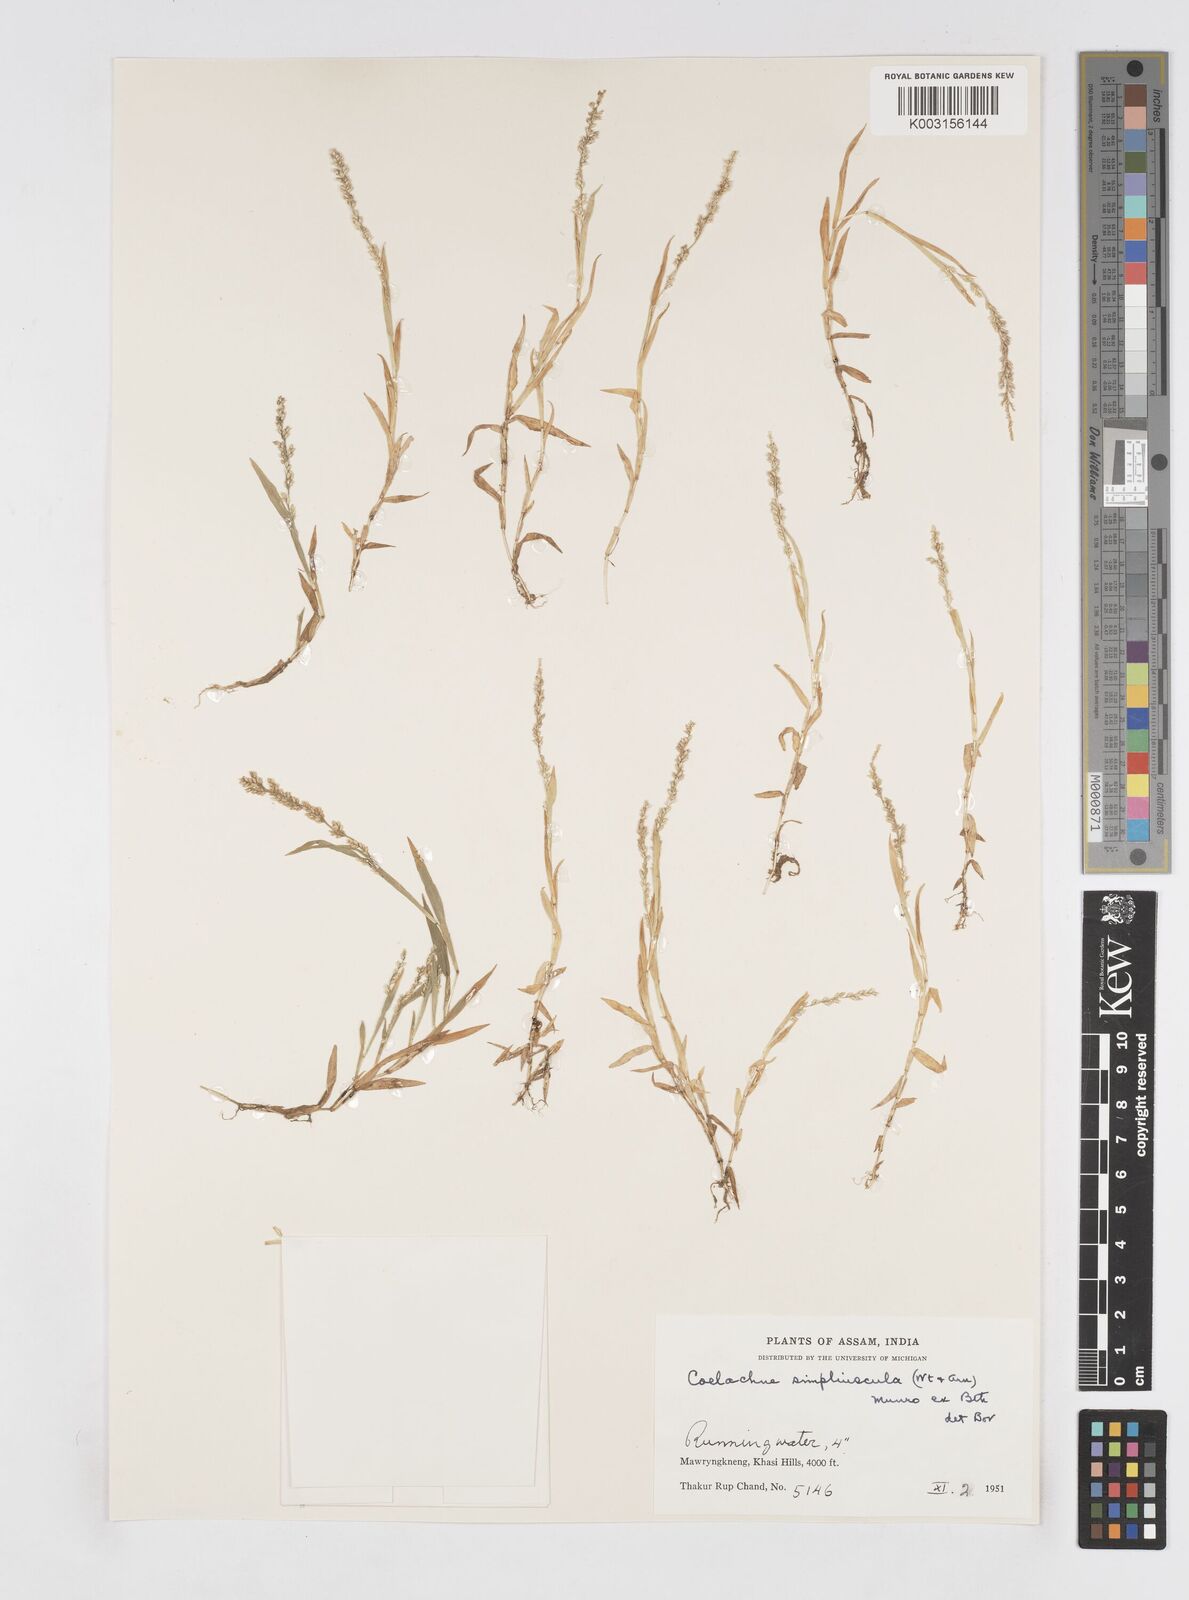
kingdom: Plantae
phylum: Tracheophyta
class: Liliopsida
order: Poales
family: Poaceae
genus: Coelachne
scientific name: Coelachne simpliciuscula
